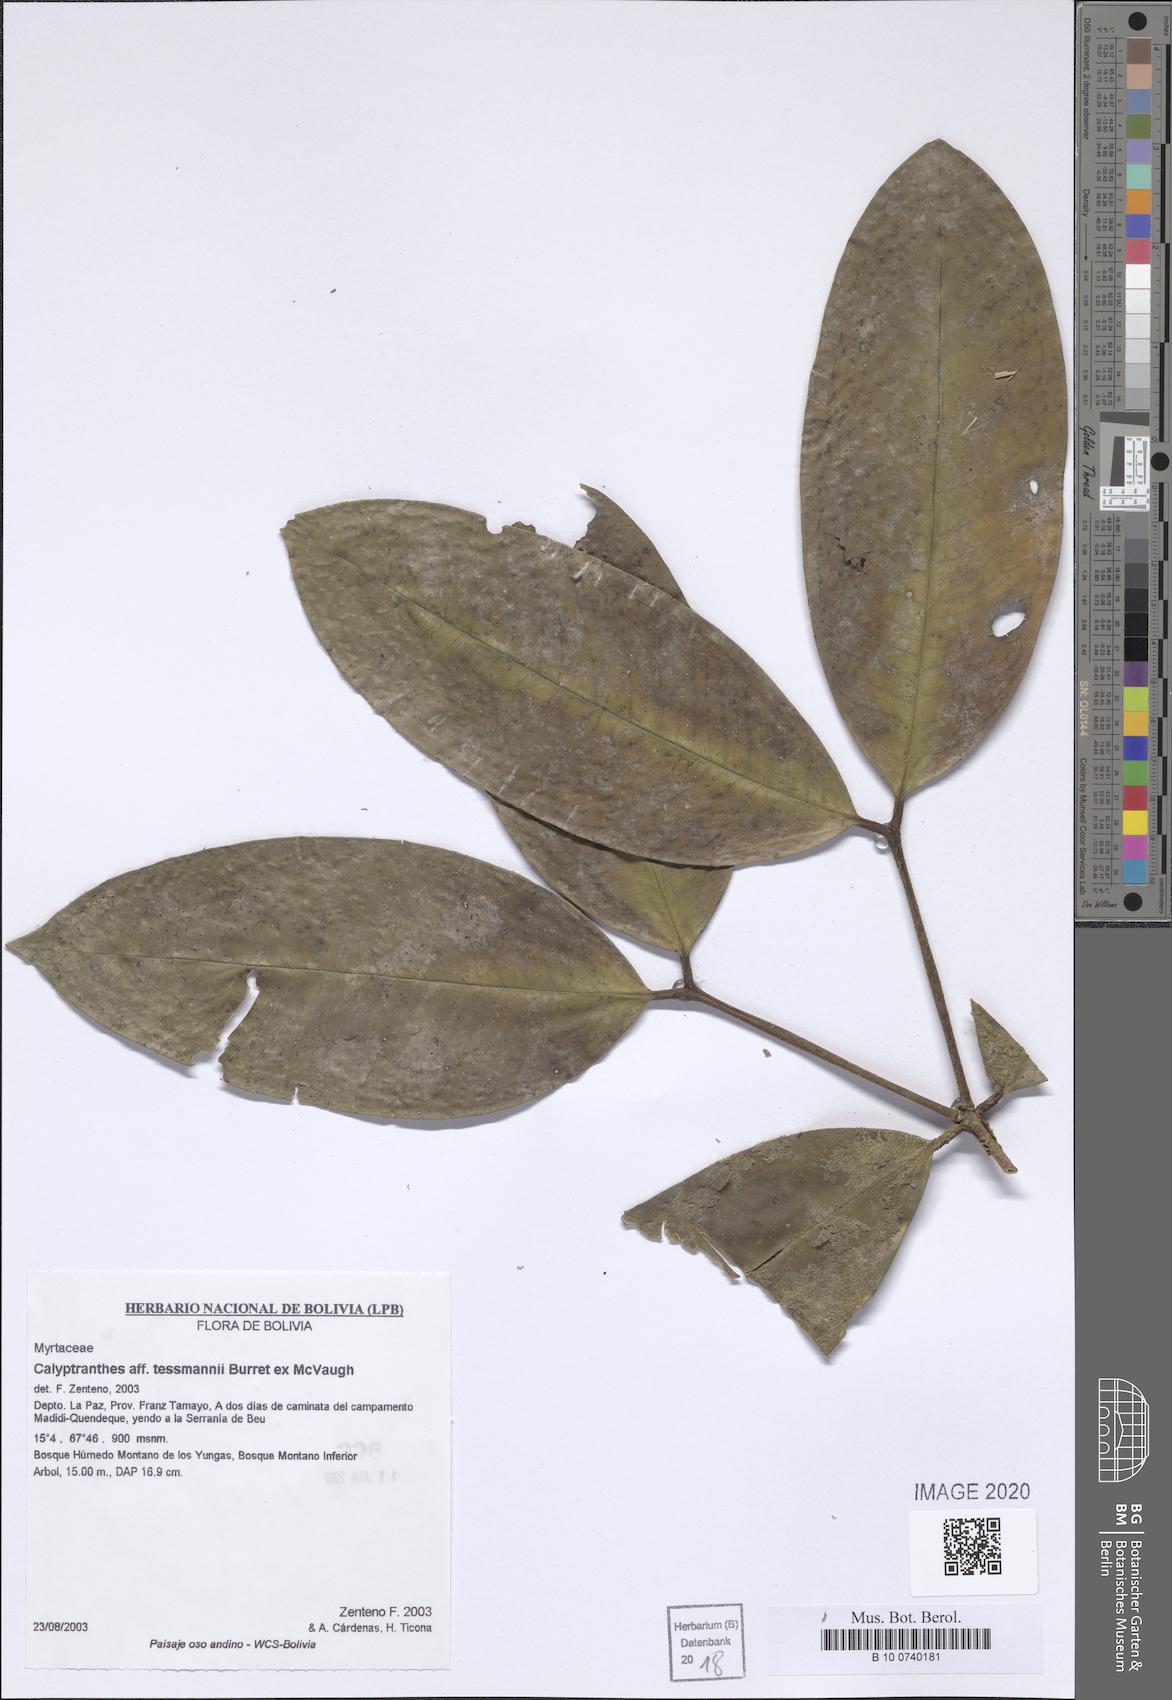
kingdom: Plantae
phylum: Tracheophyta
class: Magnoliopsida
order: Myrtales
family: Myrtaceae
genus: Myrcia
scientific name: Myrcia tessmannii
